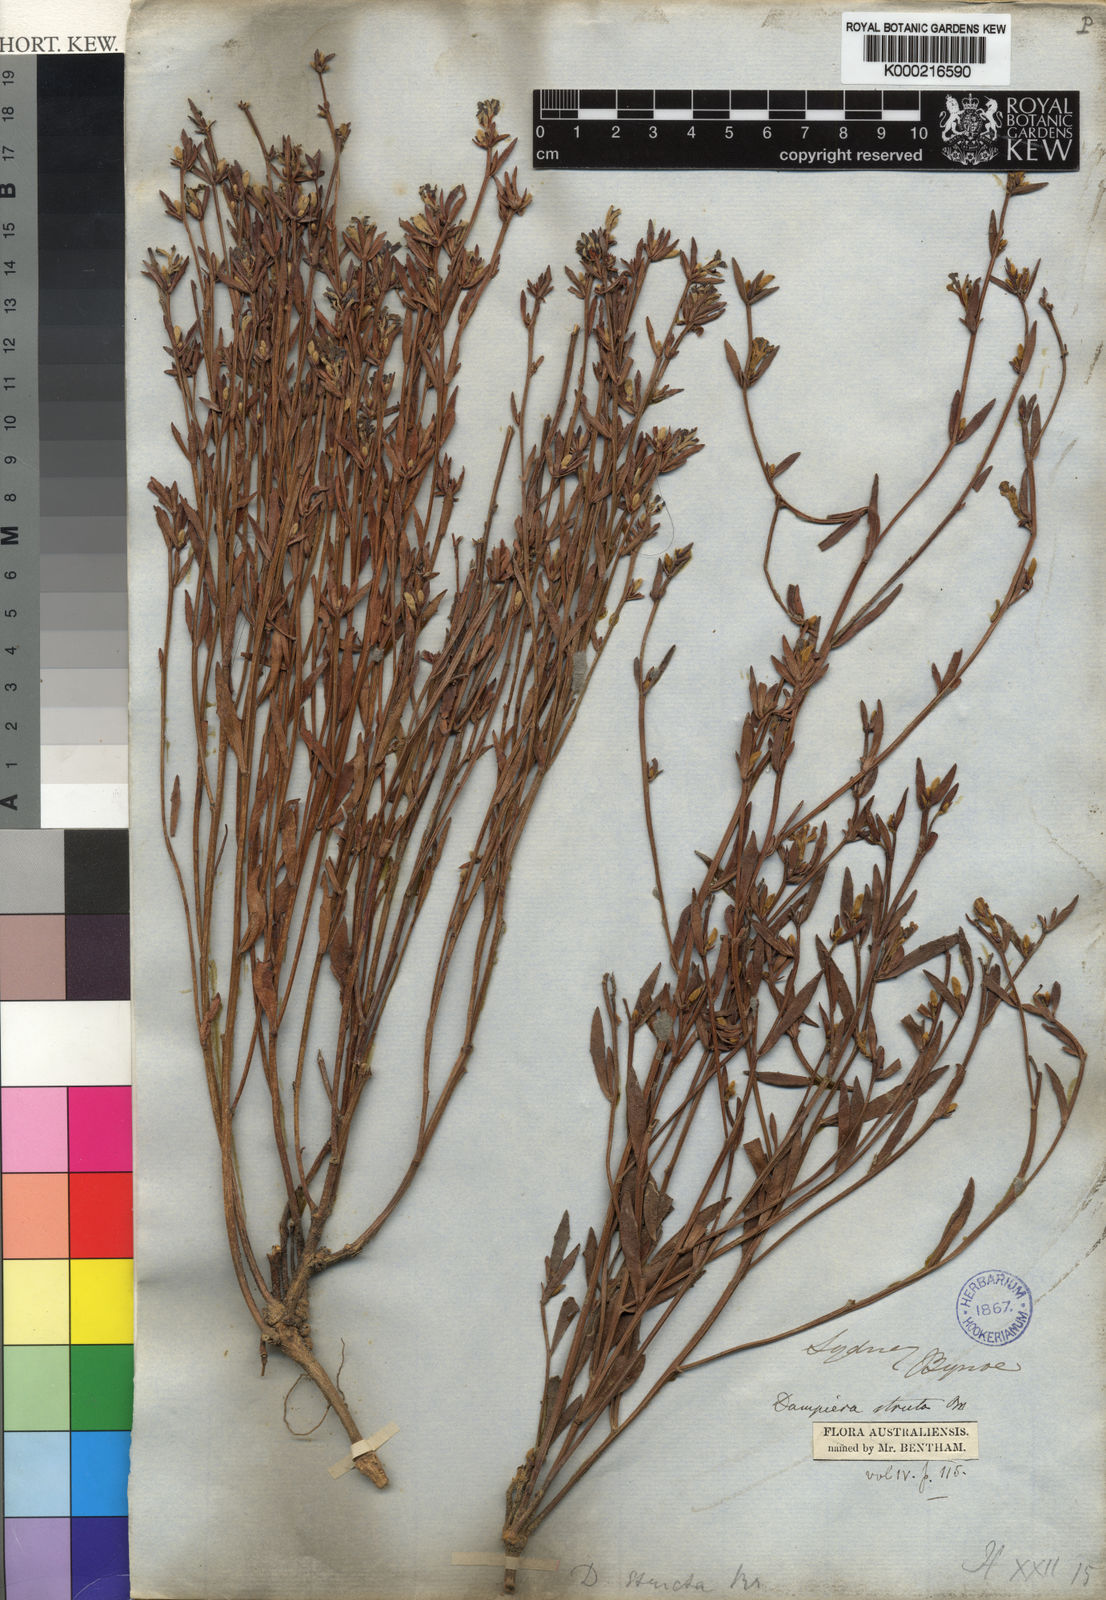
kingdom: Plantae
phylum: Tracheophyta
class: Magnoliopsida
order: Asterales
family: Goodeniaceae
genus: Dampiera
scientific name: Dampiera stricta
